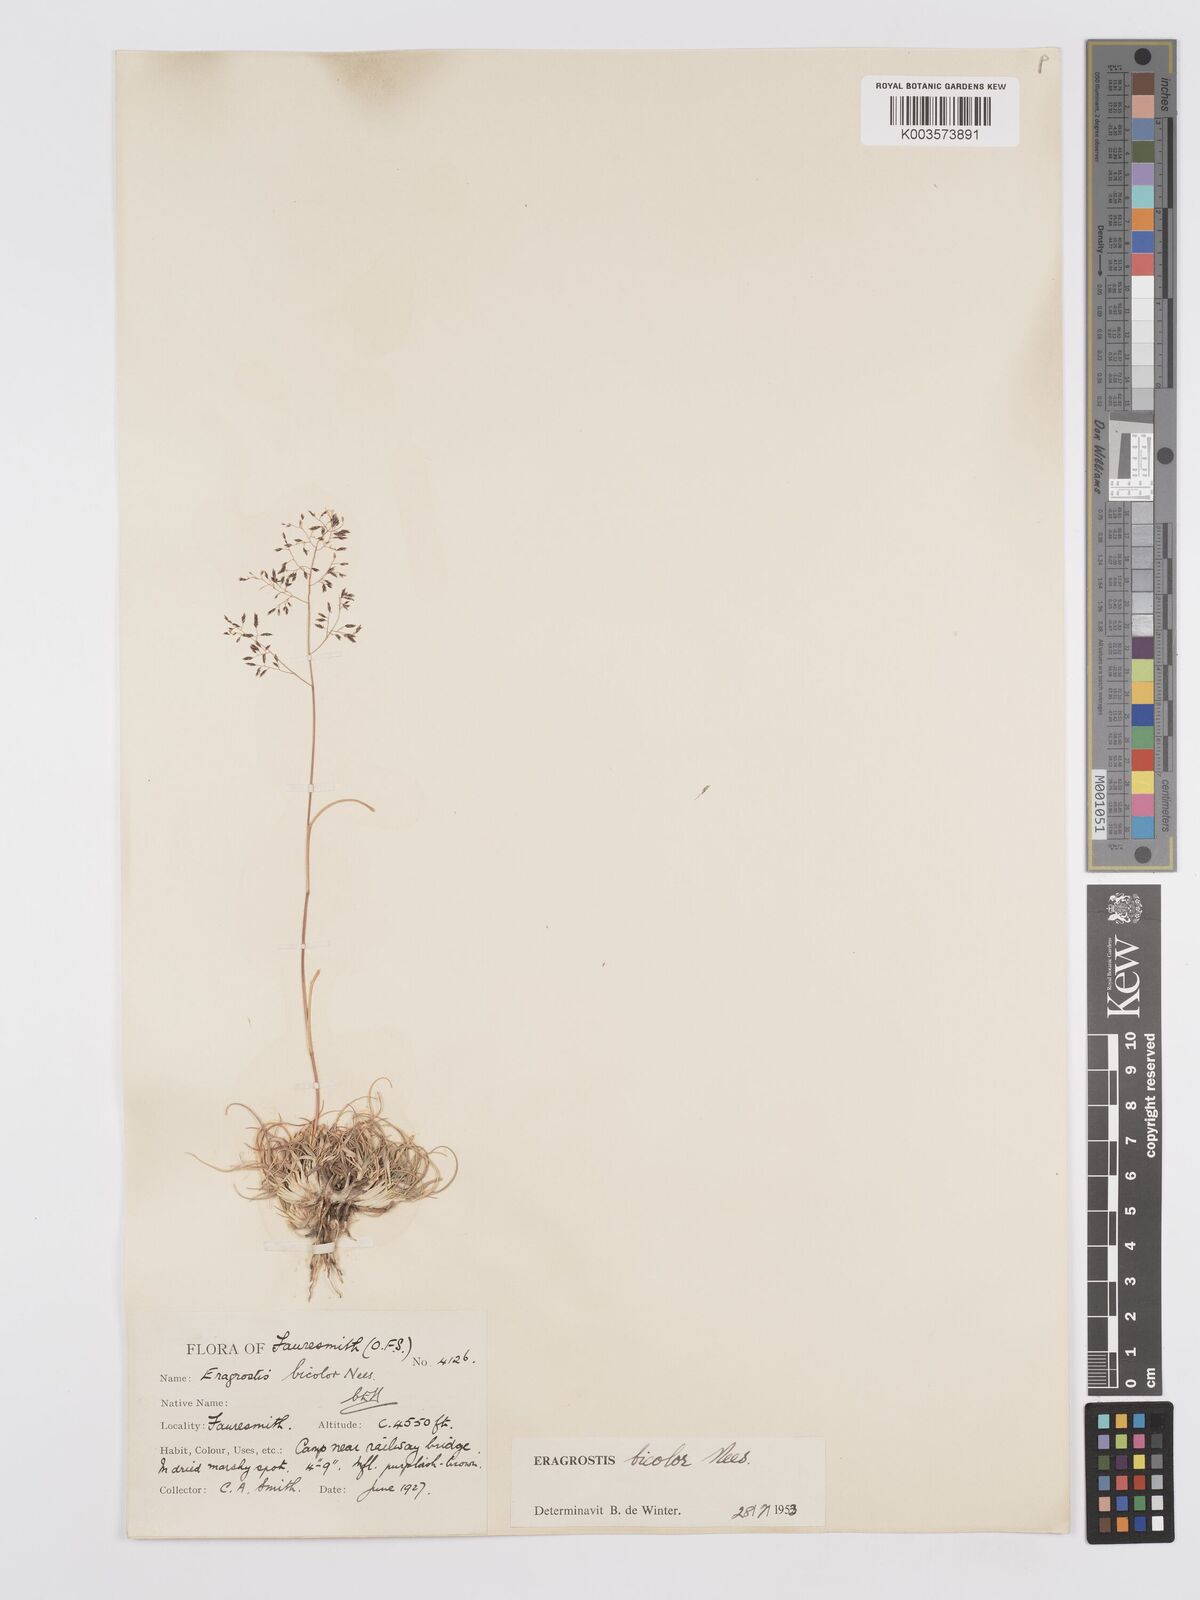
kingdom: Plantae
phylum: Tracheophyta
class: Liliopsida
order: Poales
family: Poaceae
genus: Eragrostis
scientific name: Eragrostis
